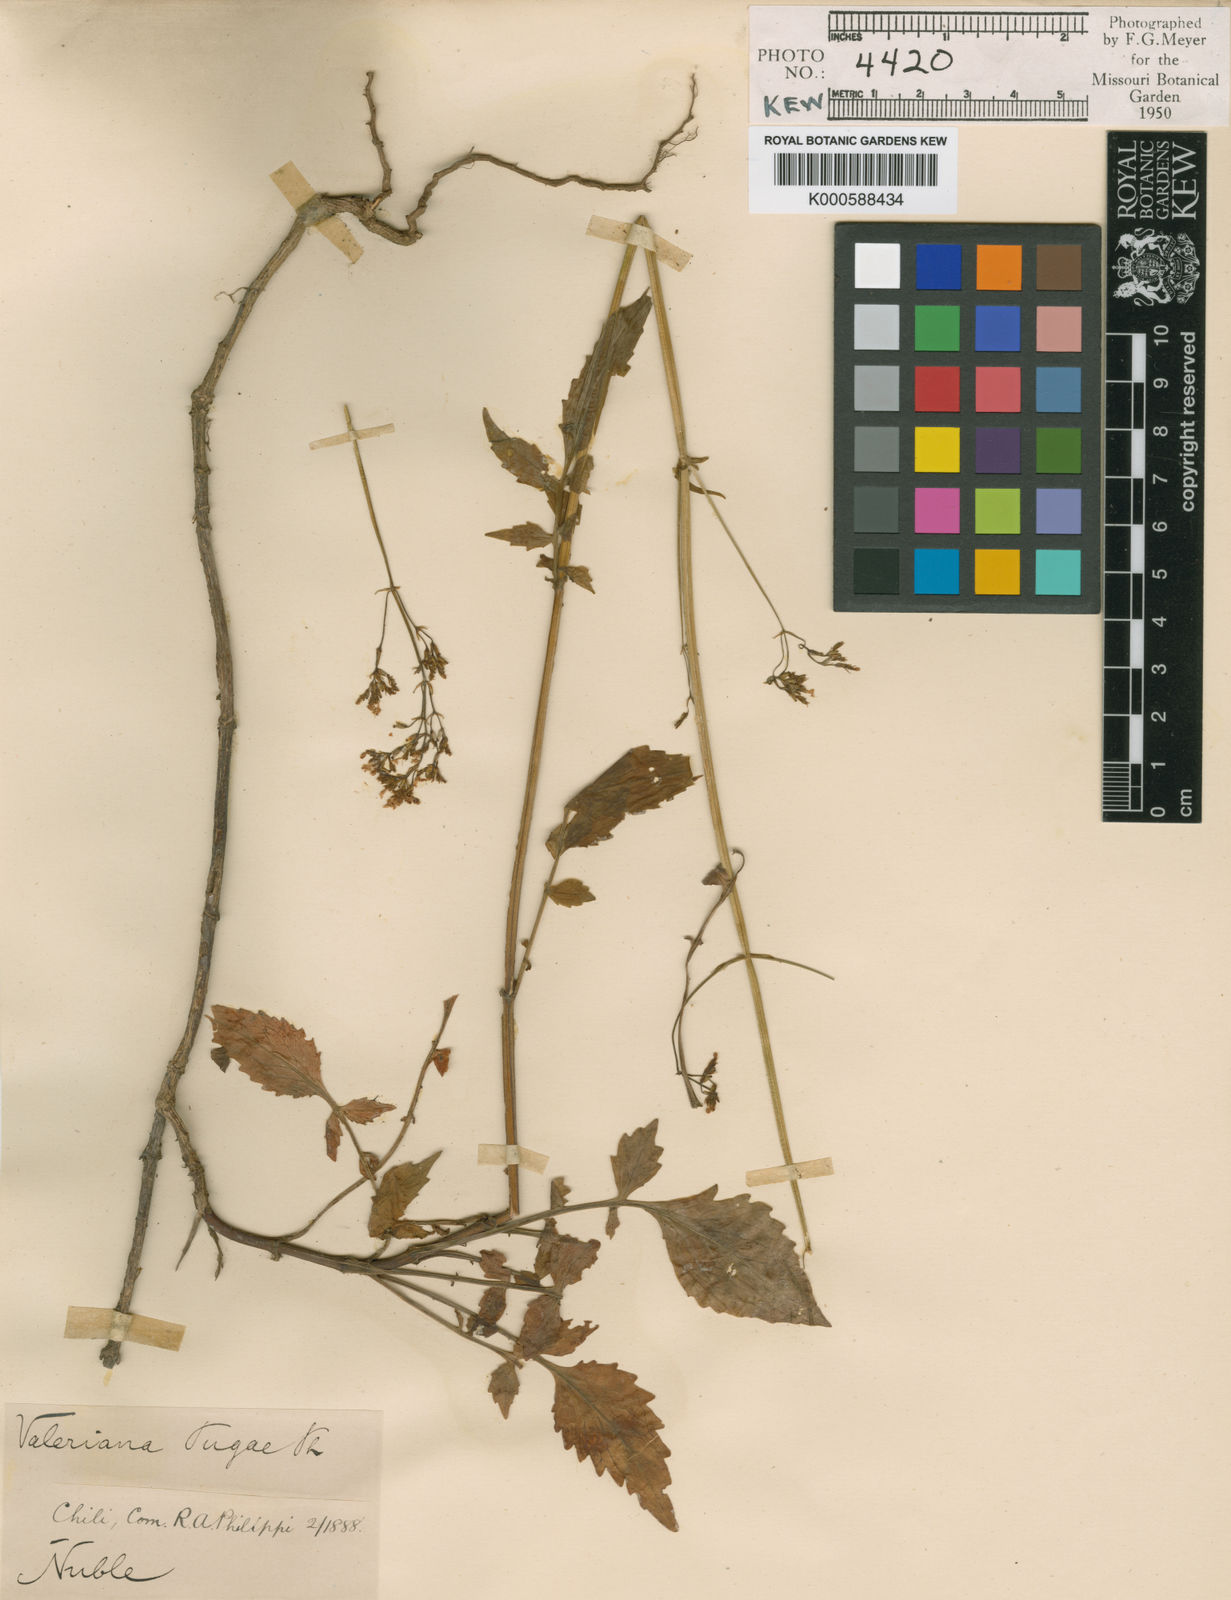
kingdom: Plantae
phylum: Tracheophyta
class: Magnoliopsida
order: Dipsacales
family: Caprifoliaceae
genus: Valeriana
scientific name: Valeriana polemoniifolia
